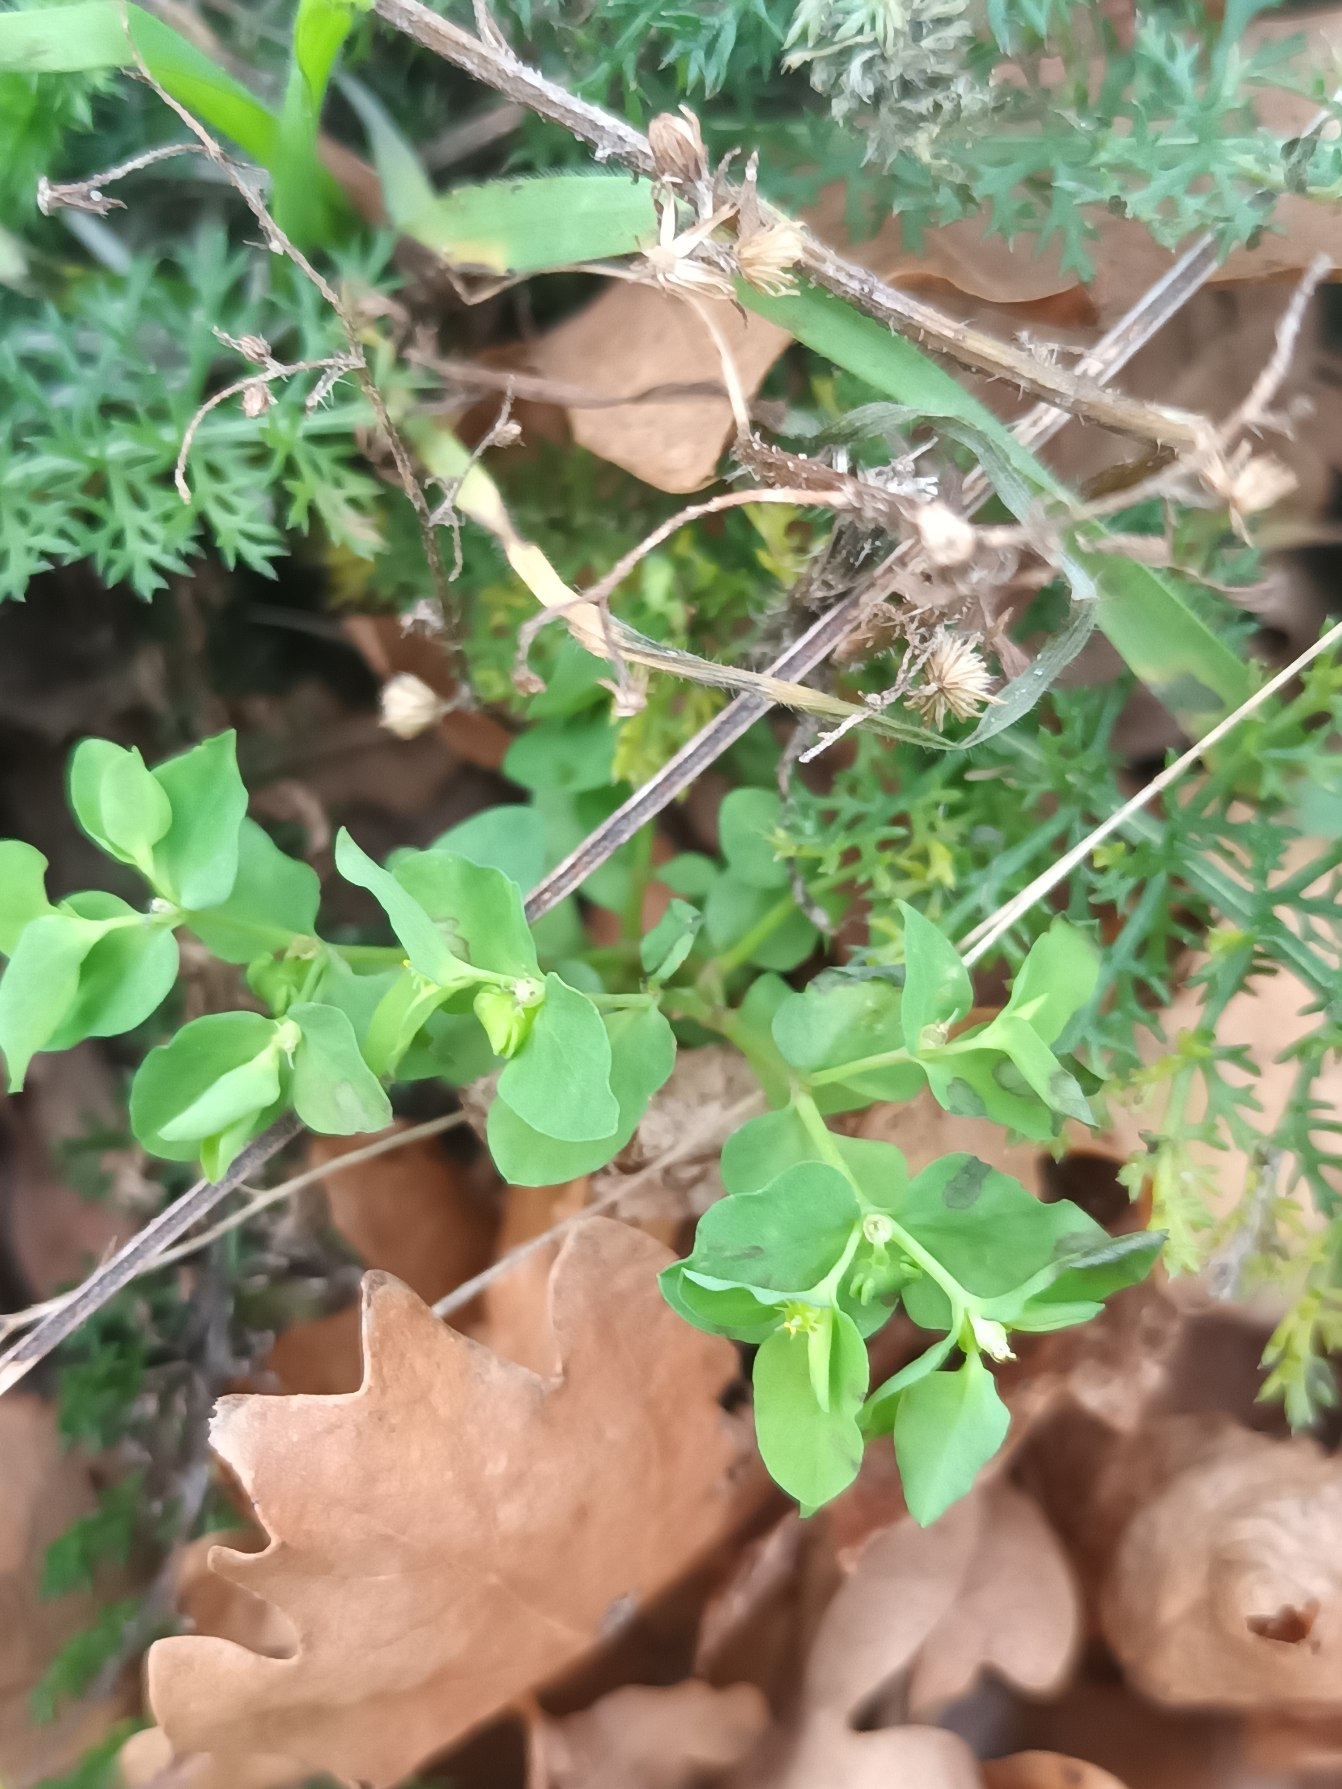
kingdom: Plantae
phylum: Tracheophyta
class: Magnoliopsida
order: Malpighiales
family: Euphorbiaceae
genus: Euphorbia
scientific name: Euphorbia peplus
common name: Gaffel-vortemælk
